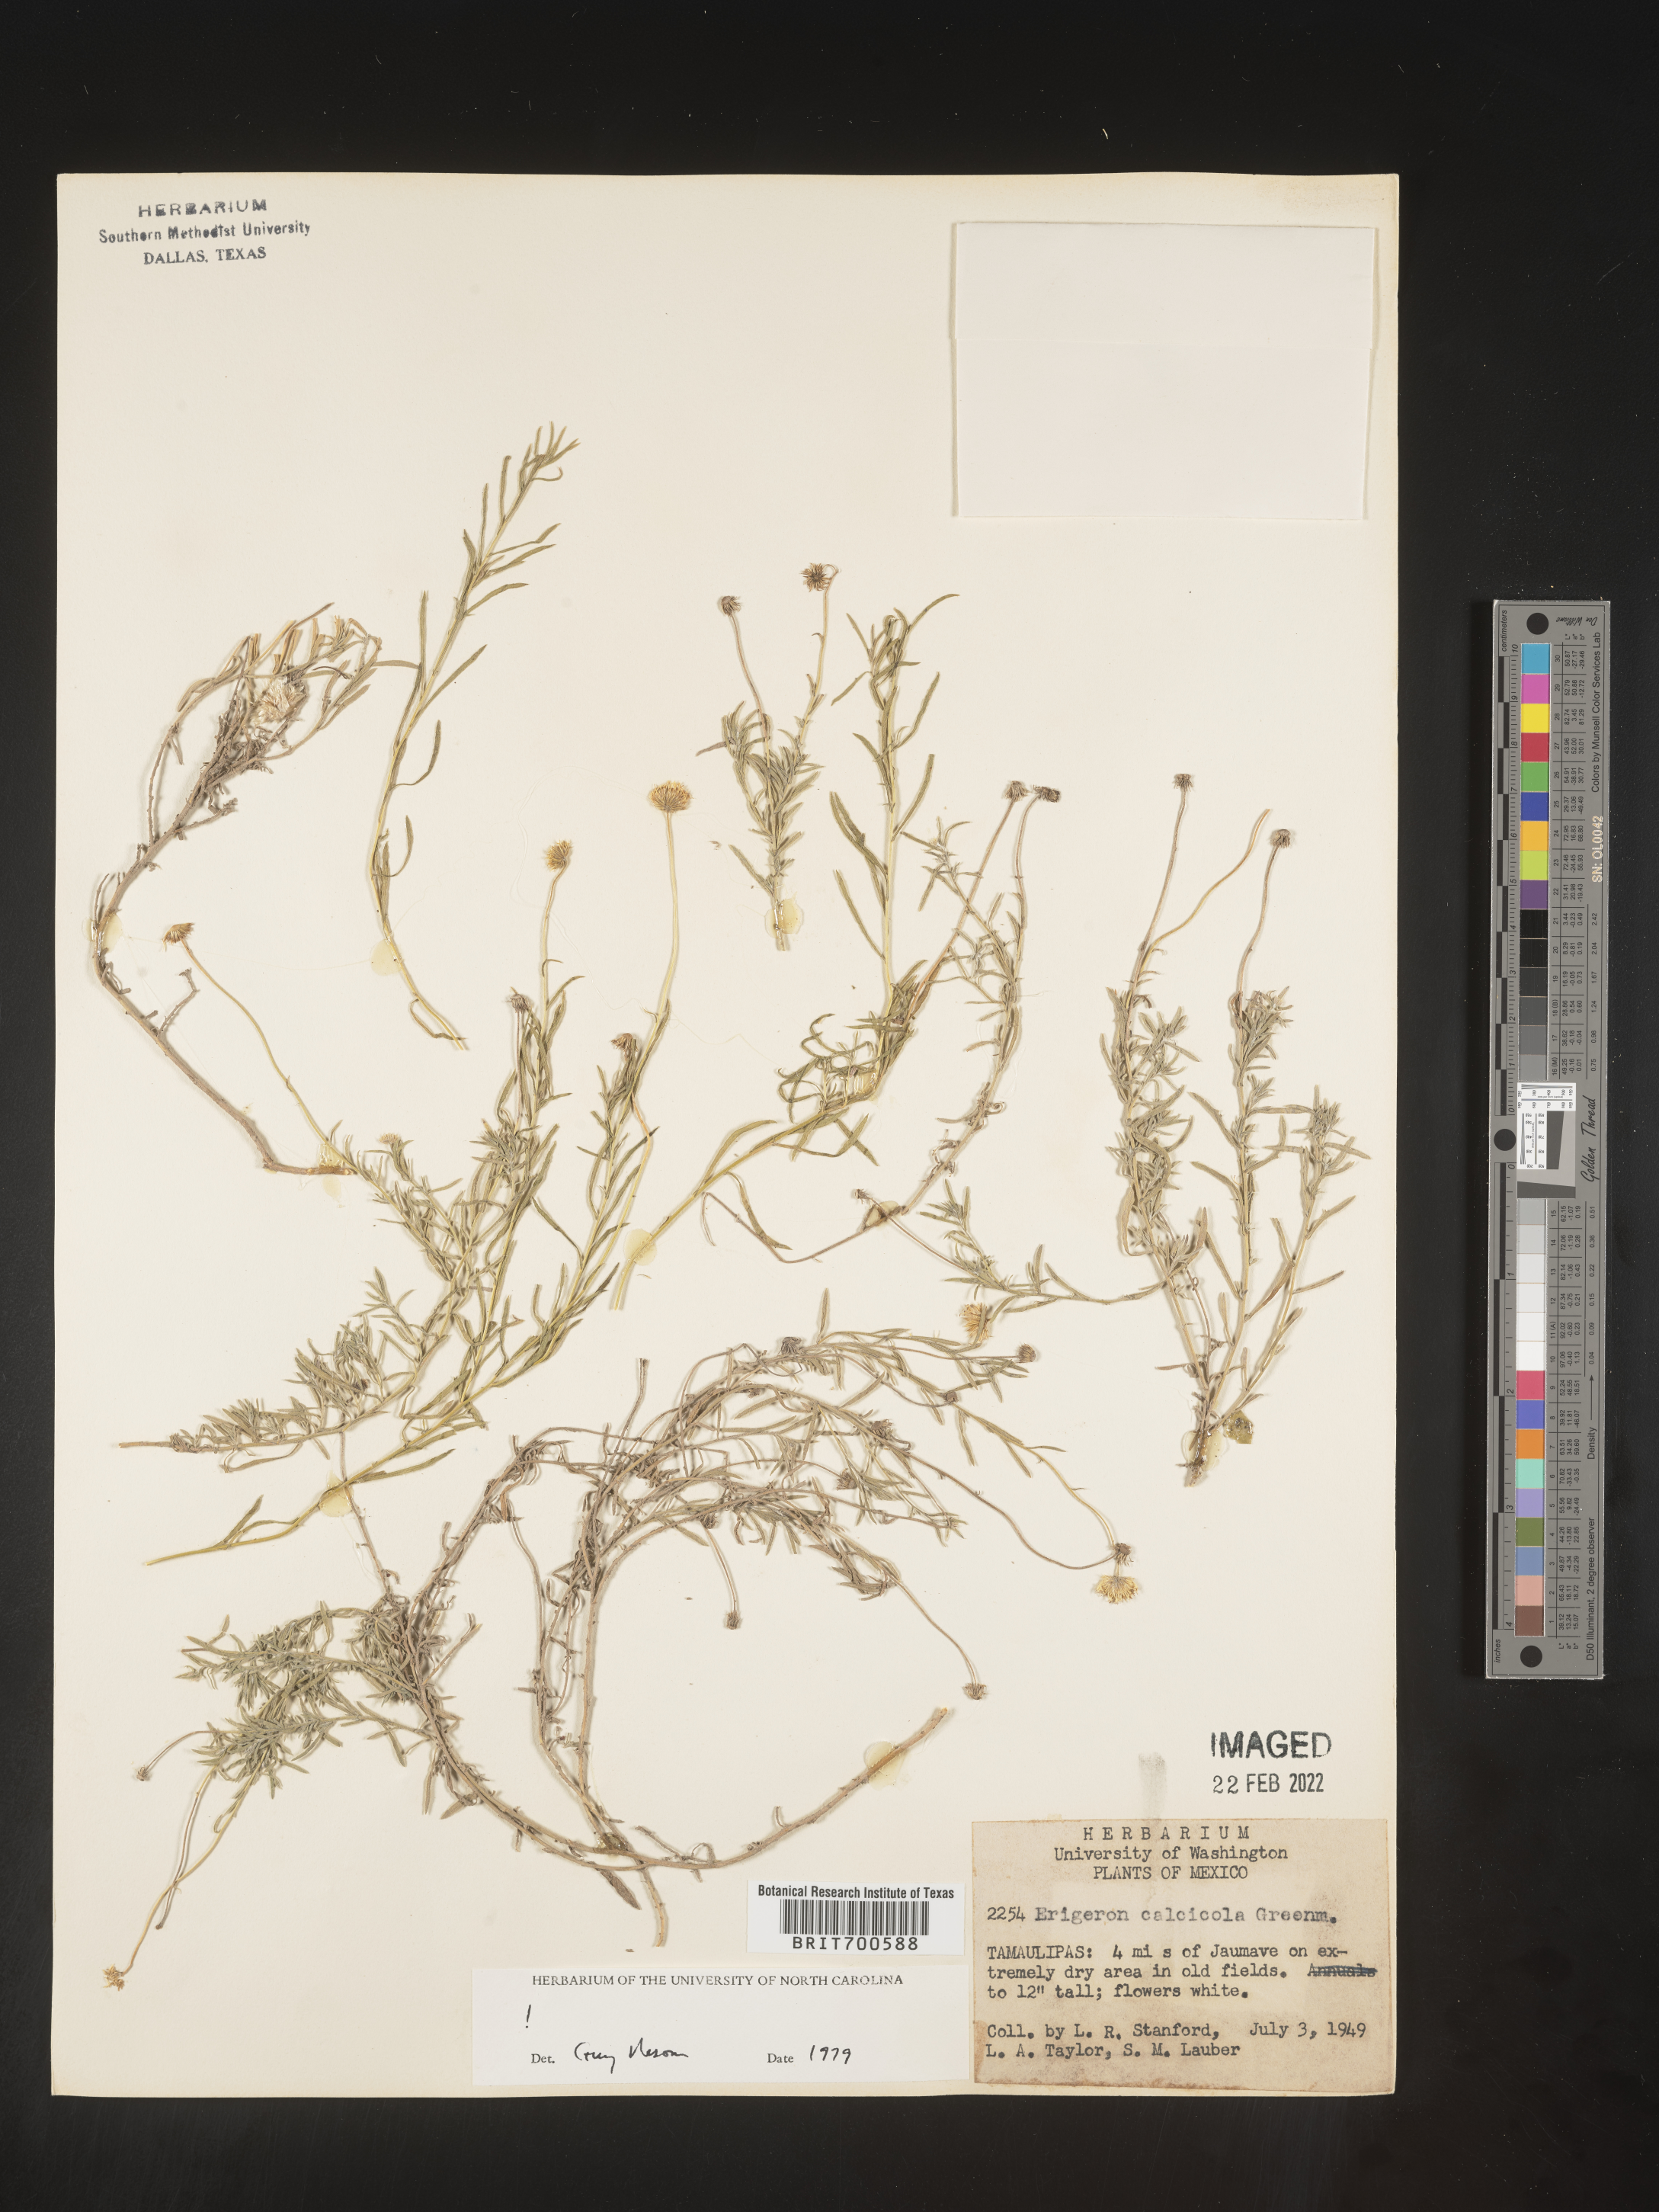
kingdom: Plantae
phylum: Tracheophyta
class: Magnoliopsida
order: Asterales
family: Asteraceae
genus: Erigeron
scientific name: Erigeron calcicola
